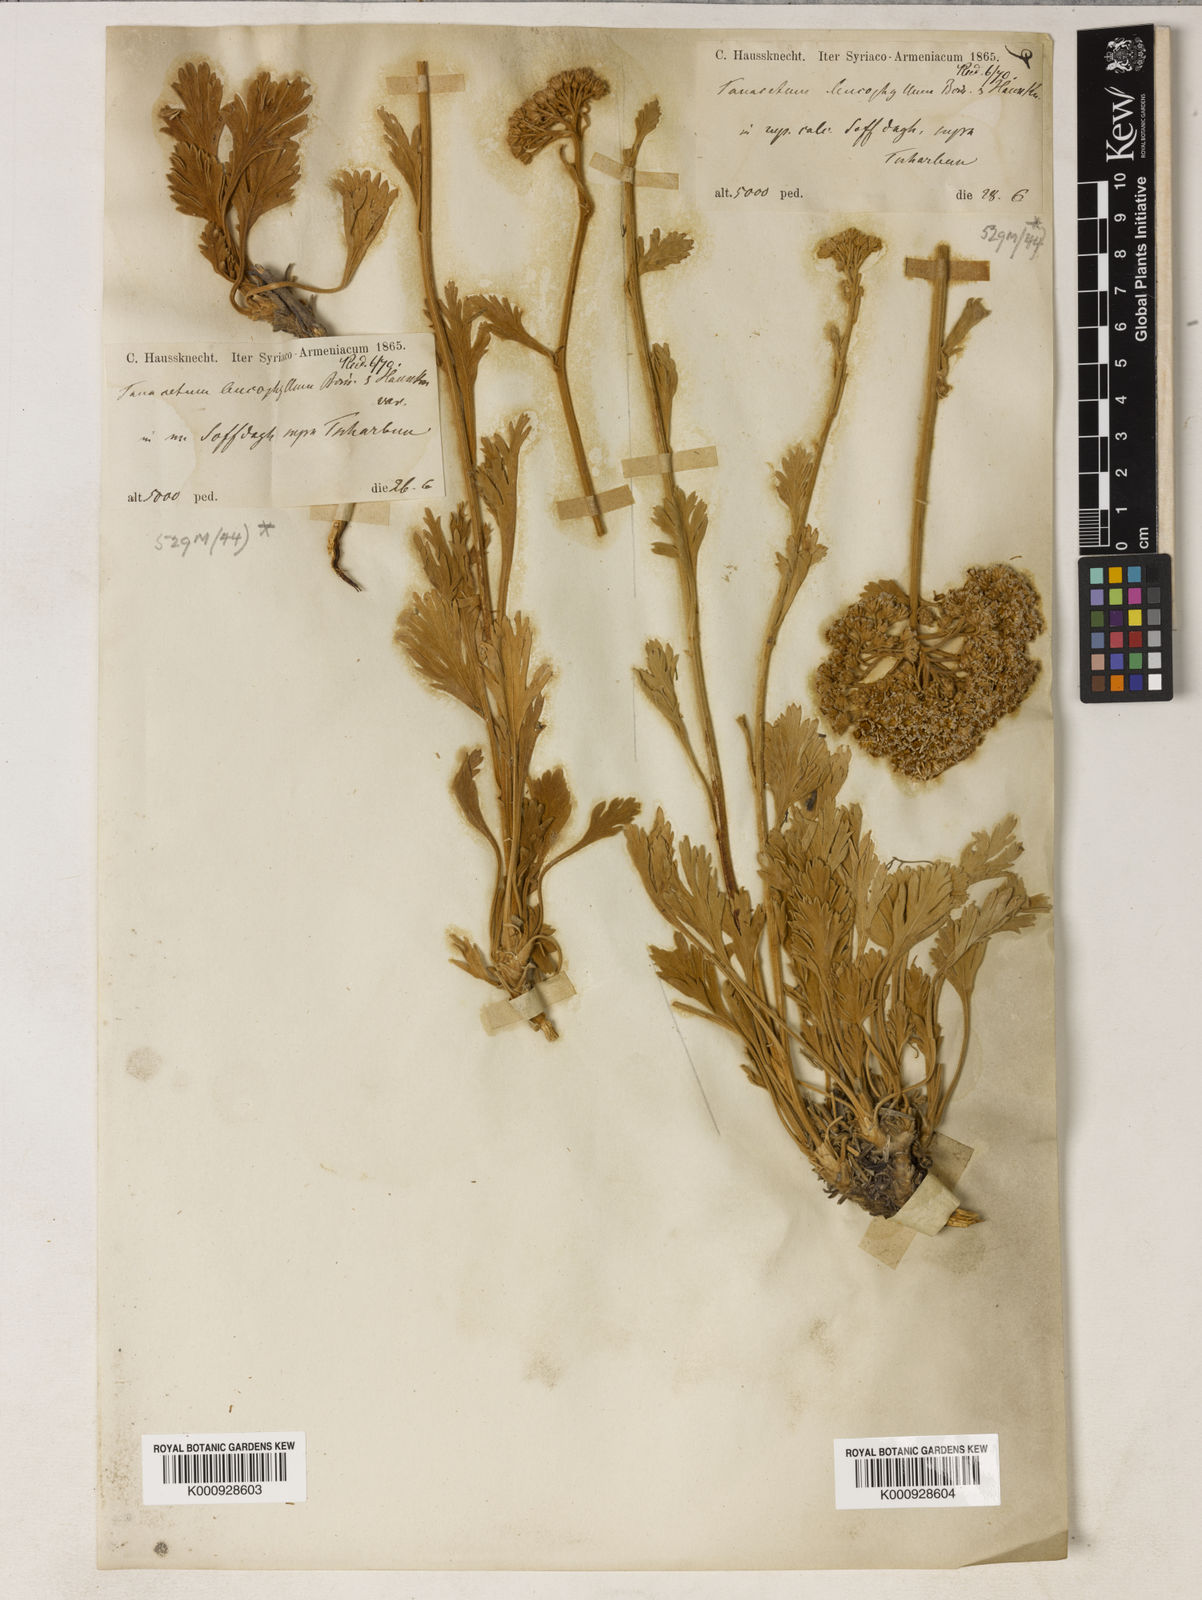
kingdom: Plantae
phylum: Tracheophyta
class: Magnoliopsida
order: Asterales
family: Asteraceae
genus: Tanacetum
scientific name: Tanacetum argenteum
